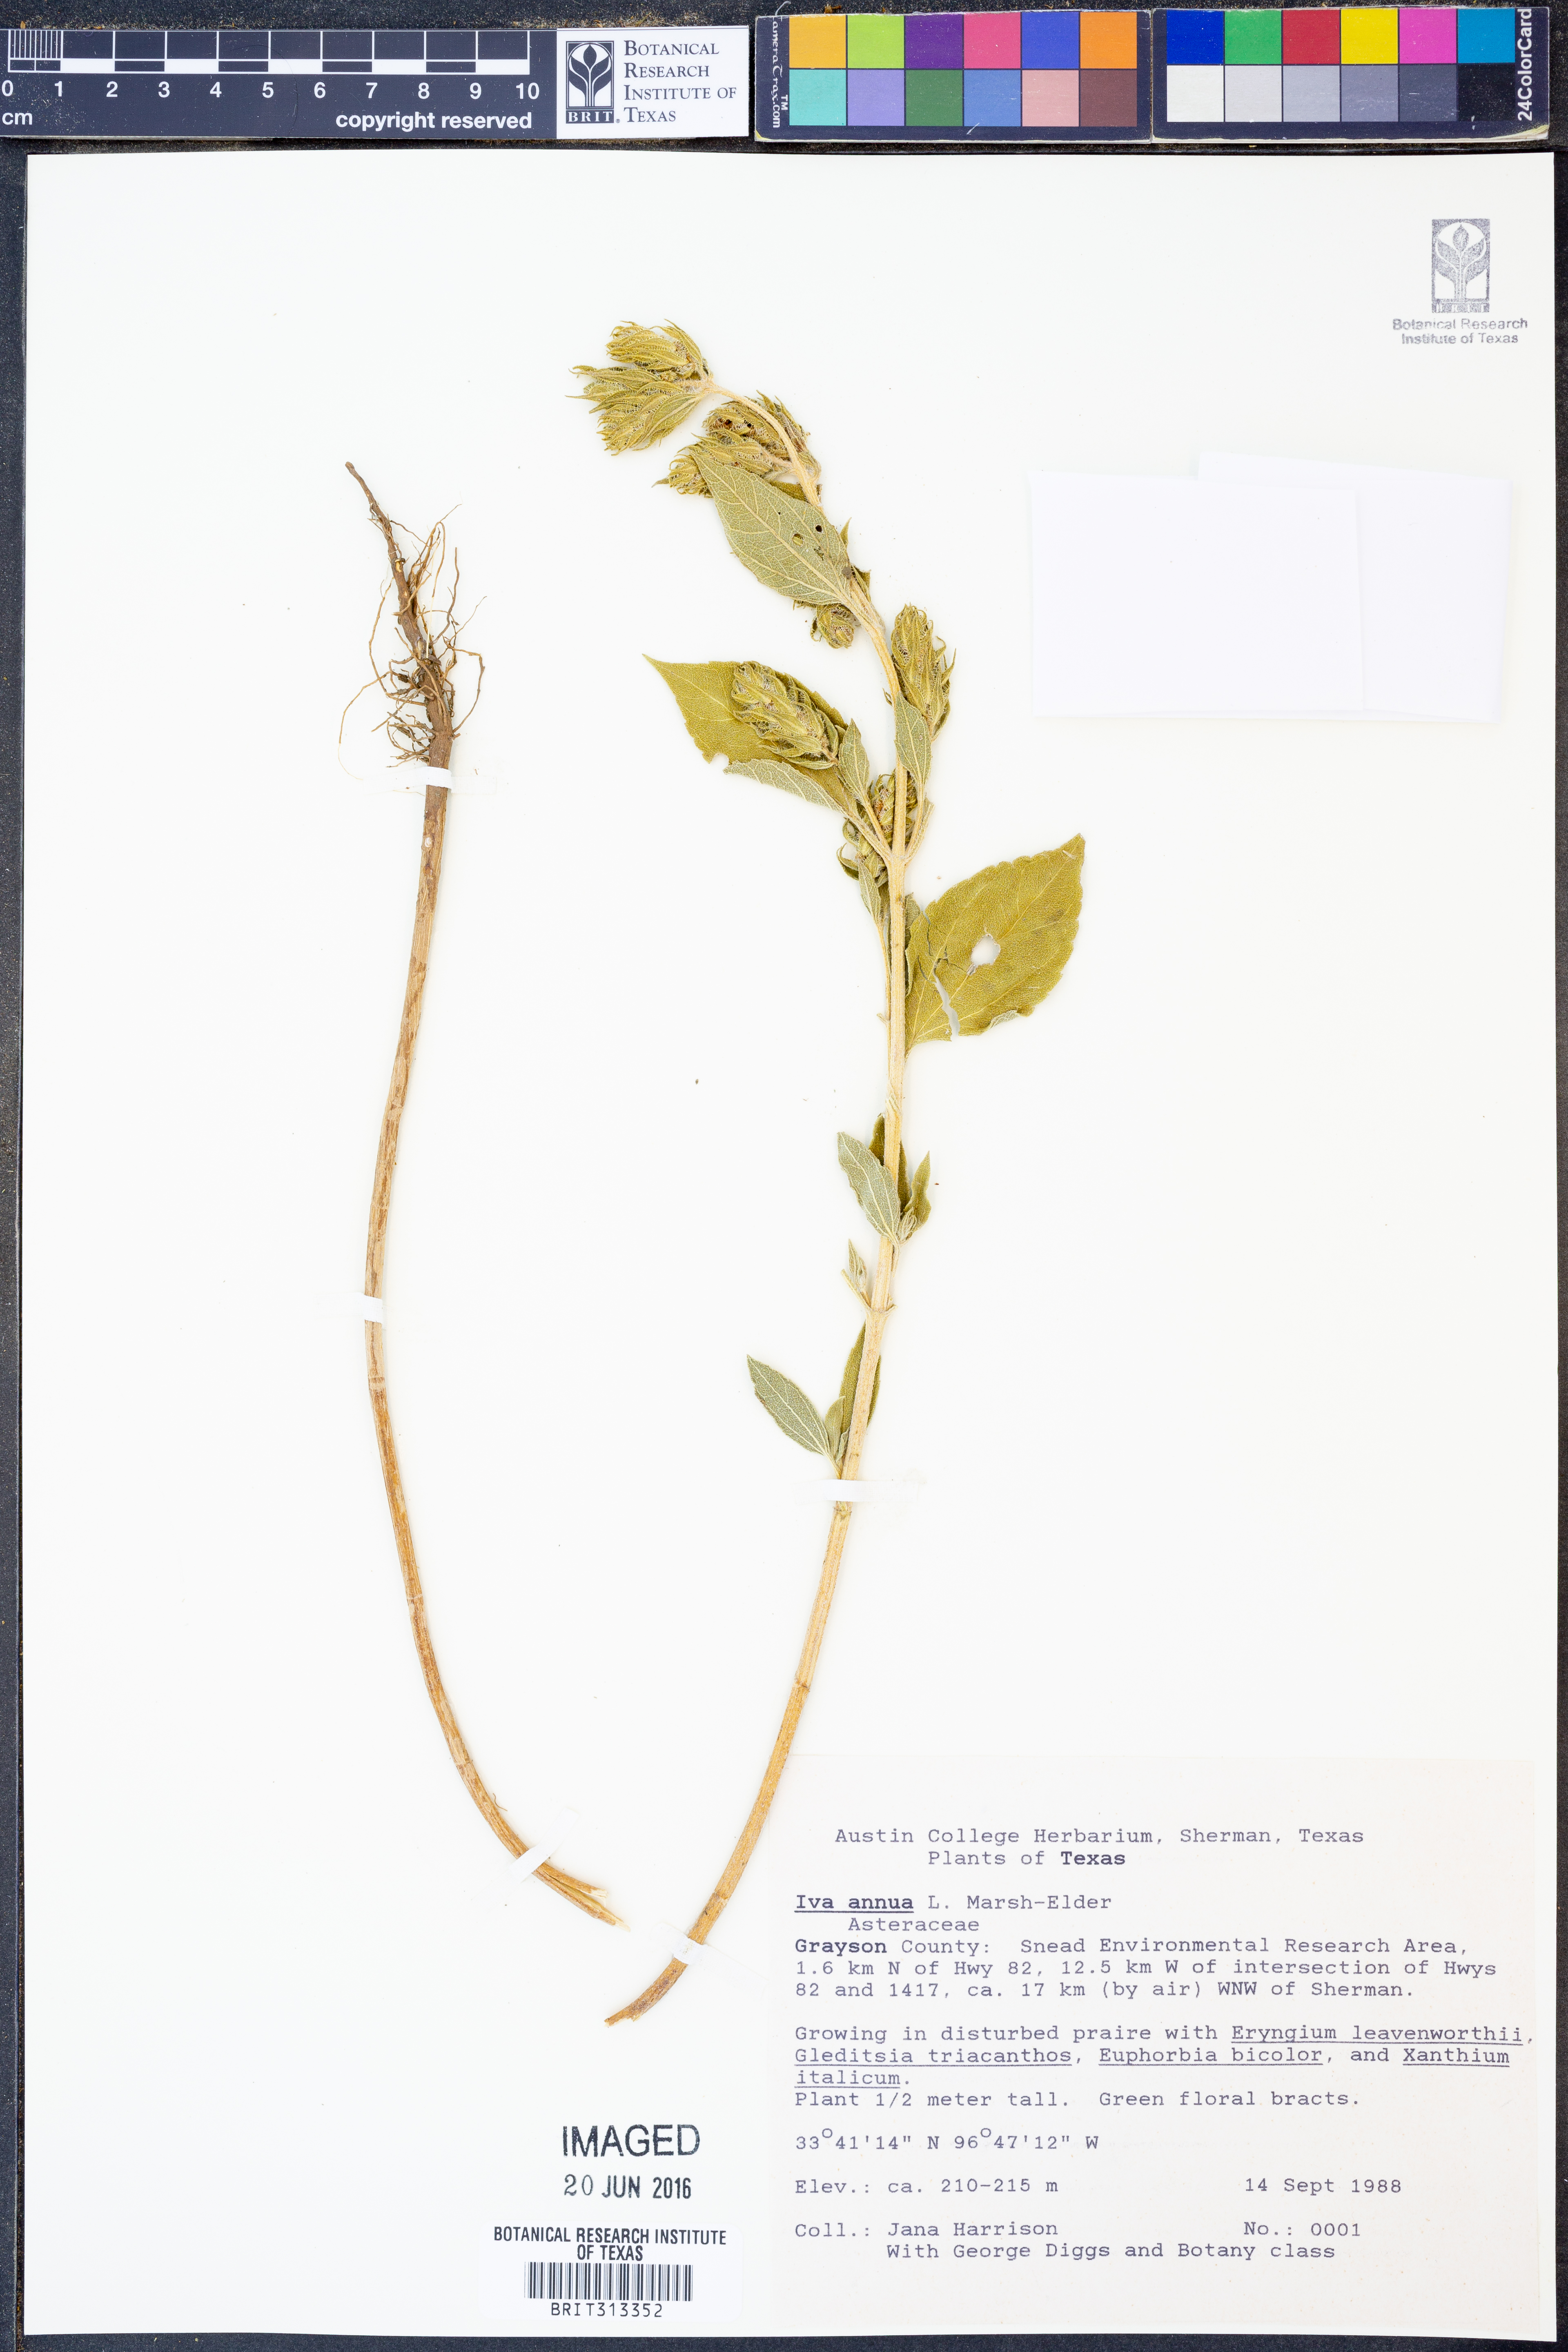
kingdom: Plantae
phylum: Tracheophyta
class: Magnoliopsida
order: Asterales
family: Asteraceae
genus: Iva
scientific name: Iva annua
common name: Marsh-elder
